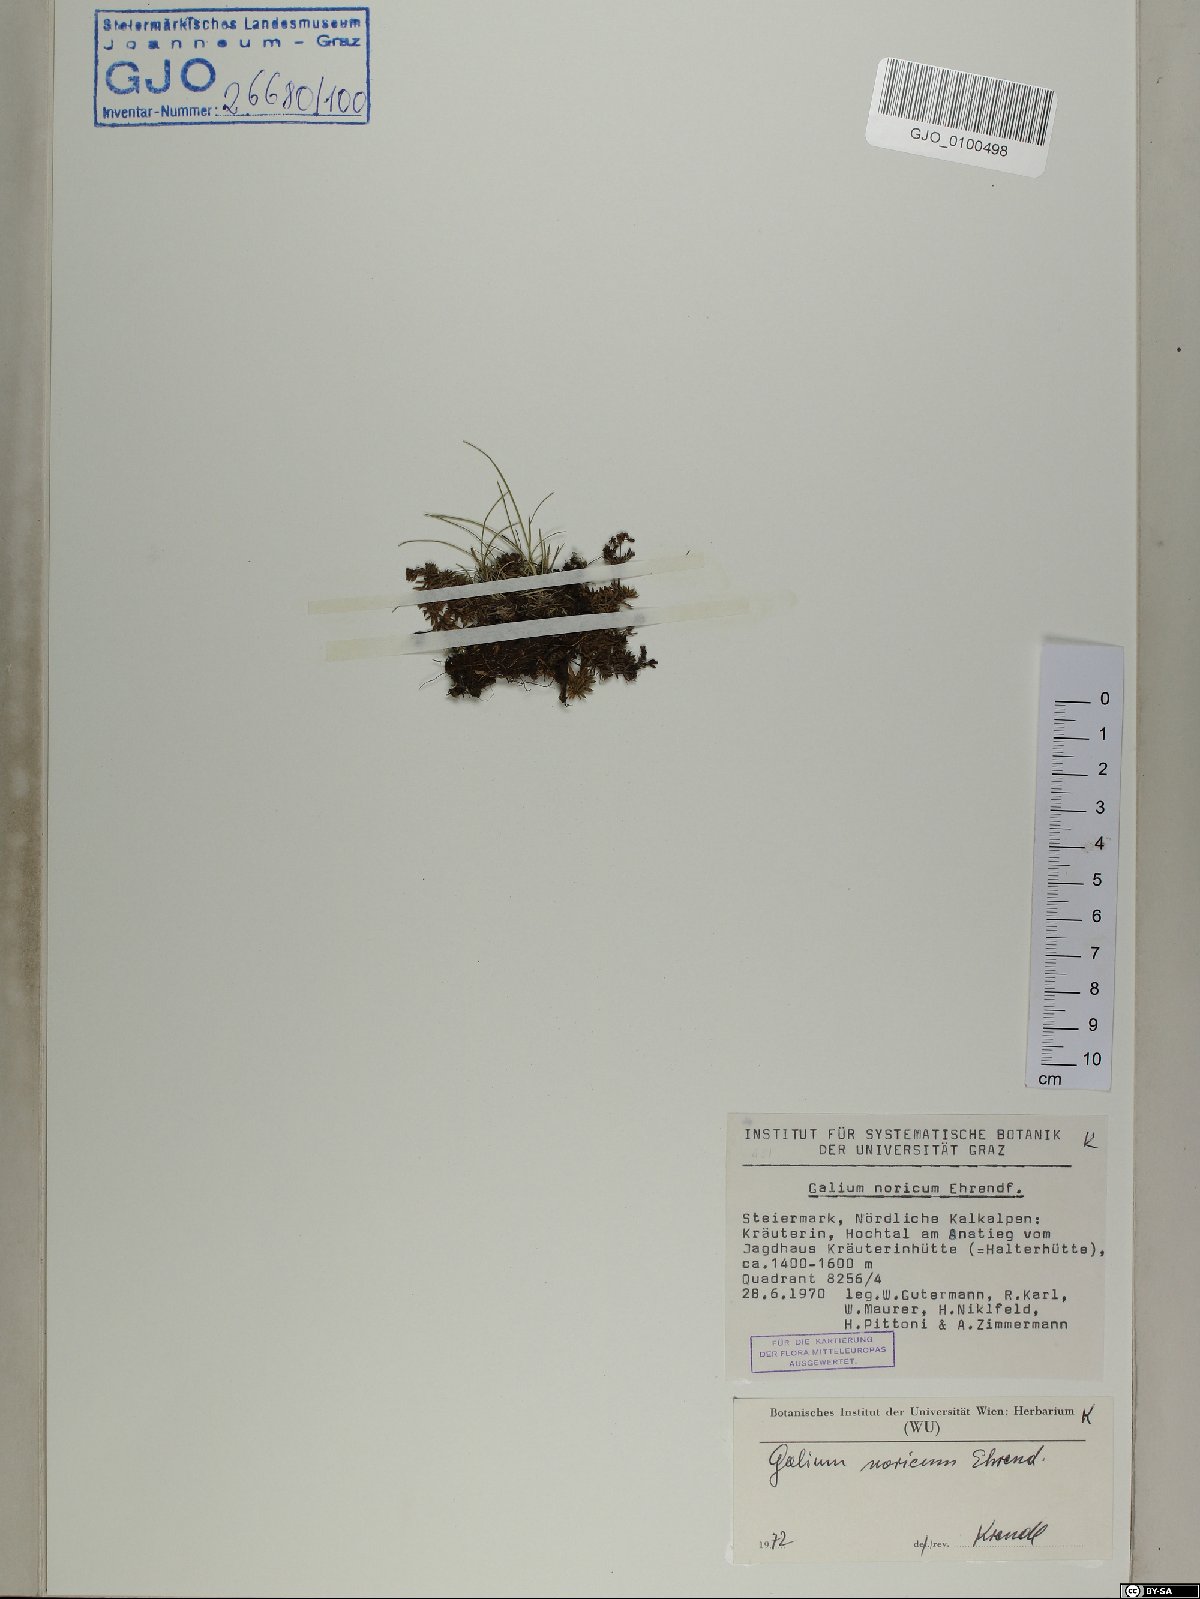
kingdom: Plantae
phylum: Tracheophyta
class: Magnoliopsida
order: Gentianales
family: Rubiaceae
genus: Galium
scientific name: Galium noricum
